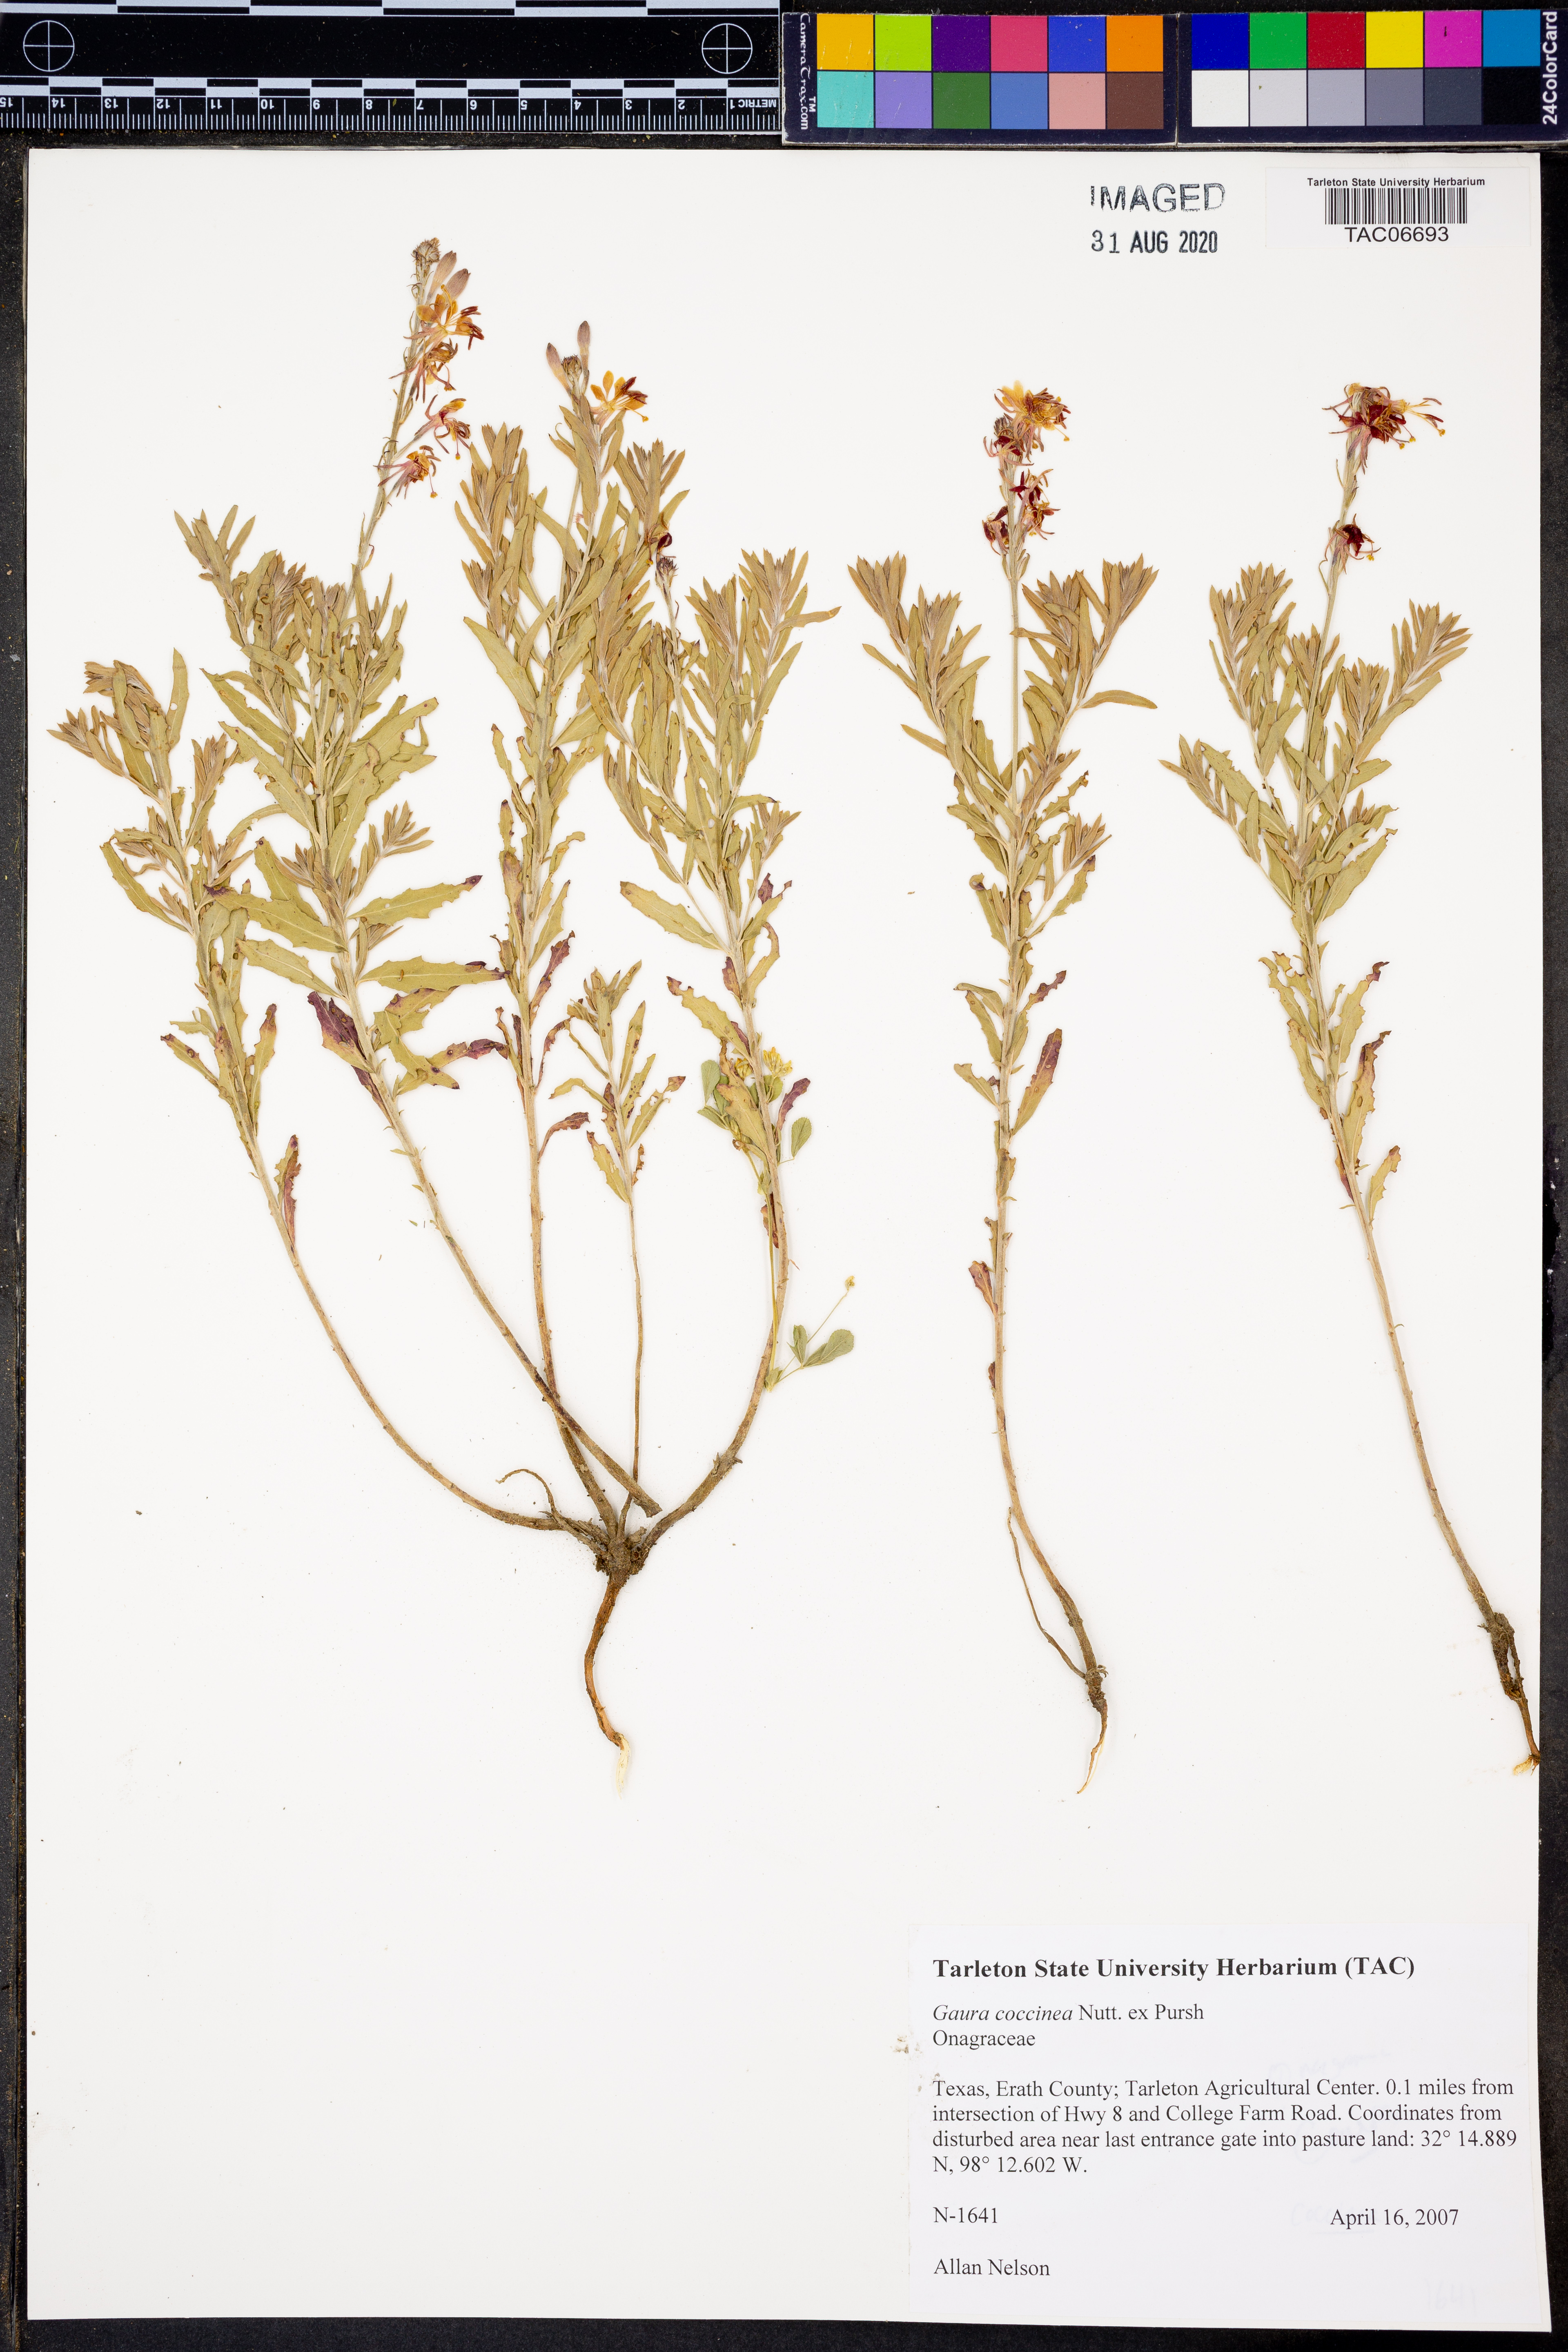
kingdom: Plantae
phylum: Tracheophyta
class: Magnoliopsida
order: Myrtales
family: Onagraceae
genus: Oenothera
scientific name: Oenothera suffrutescens
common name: Scarlet beeblossom
